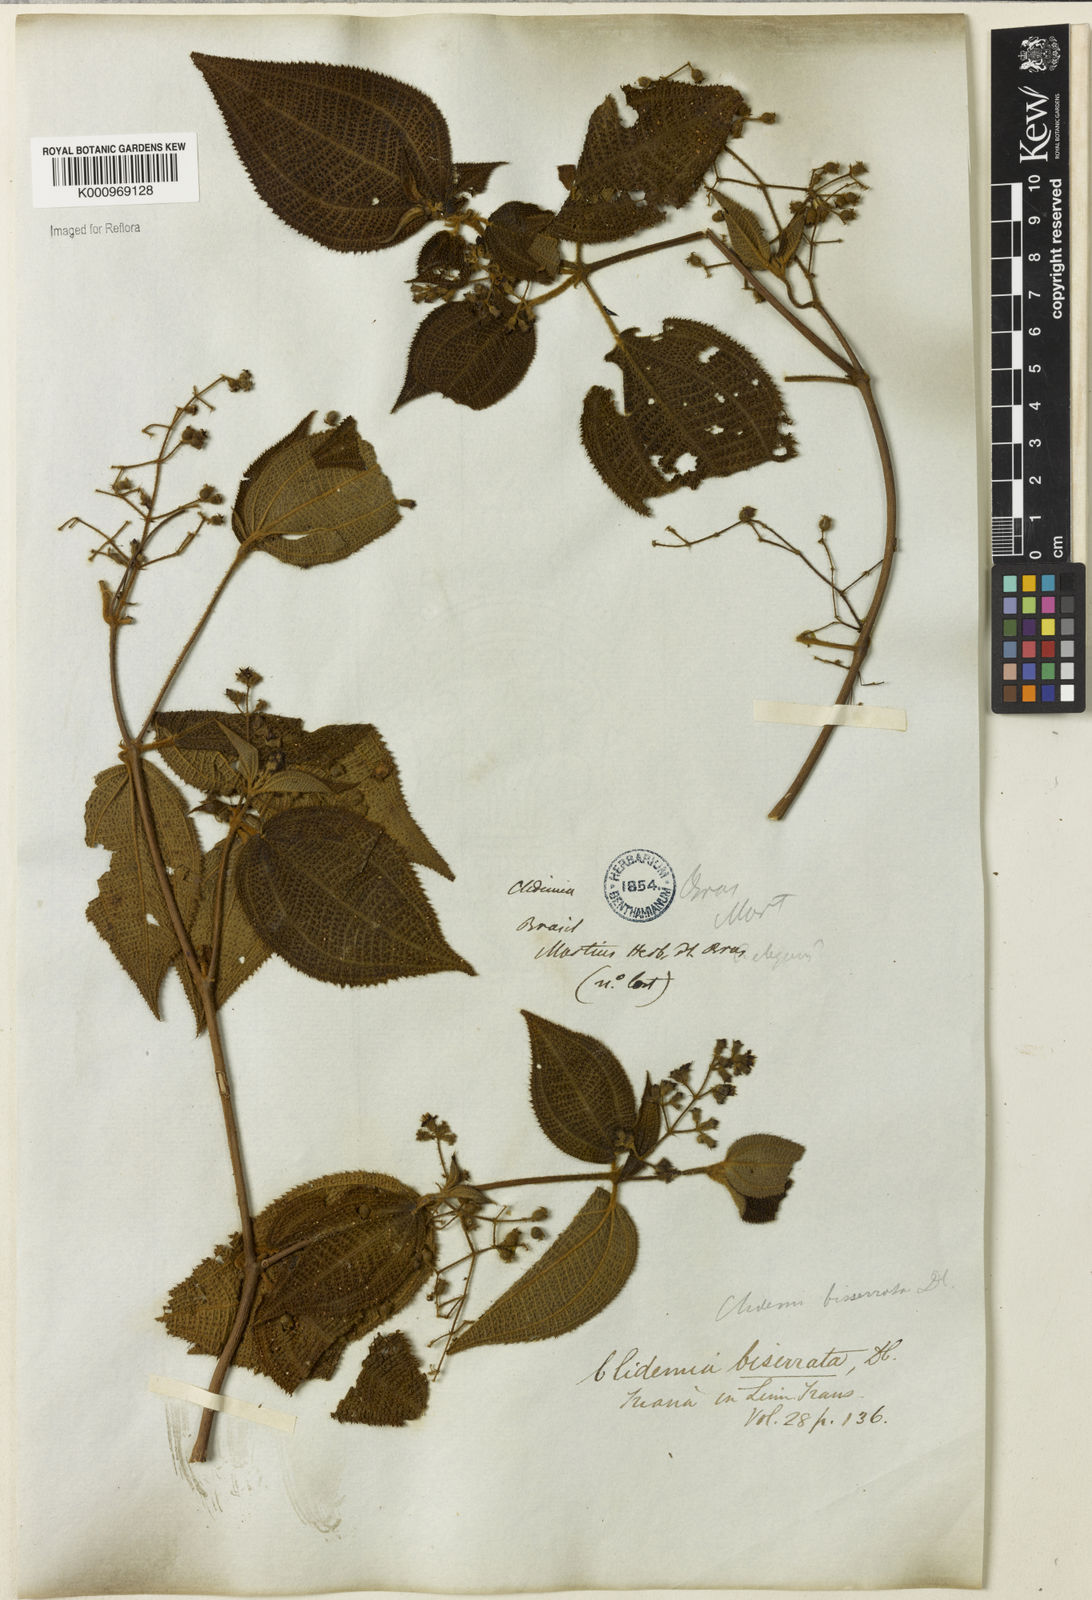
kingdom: Plantae
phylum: Tracheophyta
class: Magnoliopsida
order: Myrtales
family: Melastomataceae
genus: Miconia
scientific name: Miconia biserrata
